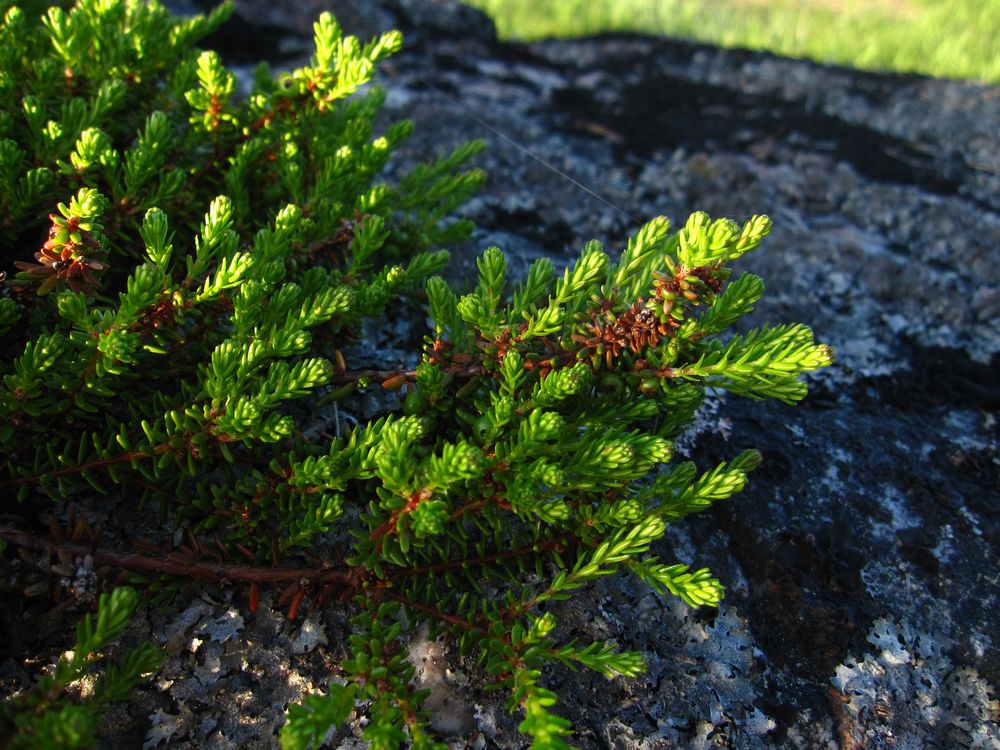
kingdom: Plantae
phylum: Tracheophyta
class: Magnoliopsida
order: Ericales
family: Ericaceae
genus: Empetrum
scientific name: Empetrum hermaphroditum
